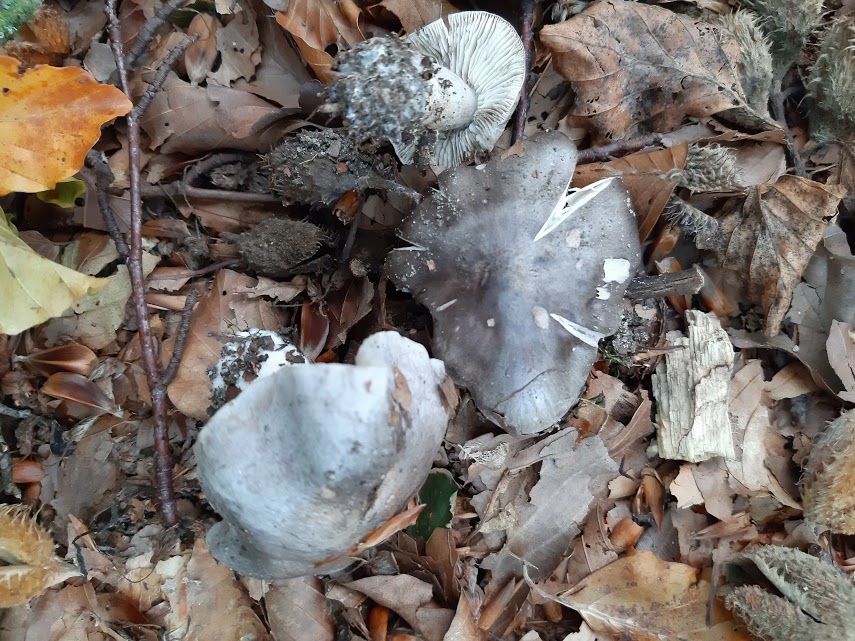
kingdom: Fungi
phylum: Basidiomycota
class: Agaricomycetes
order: Agaricales
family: Tricholomataceae
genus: Tricholoma
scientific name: Tricholoma sciodes
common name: stribet ridderhat
